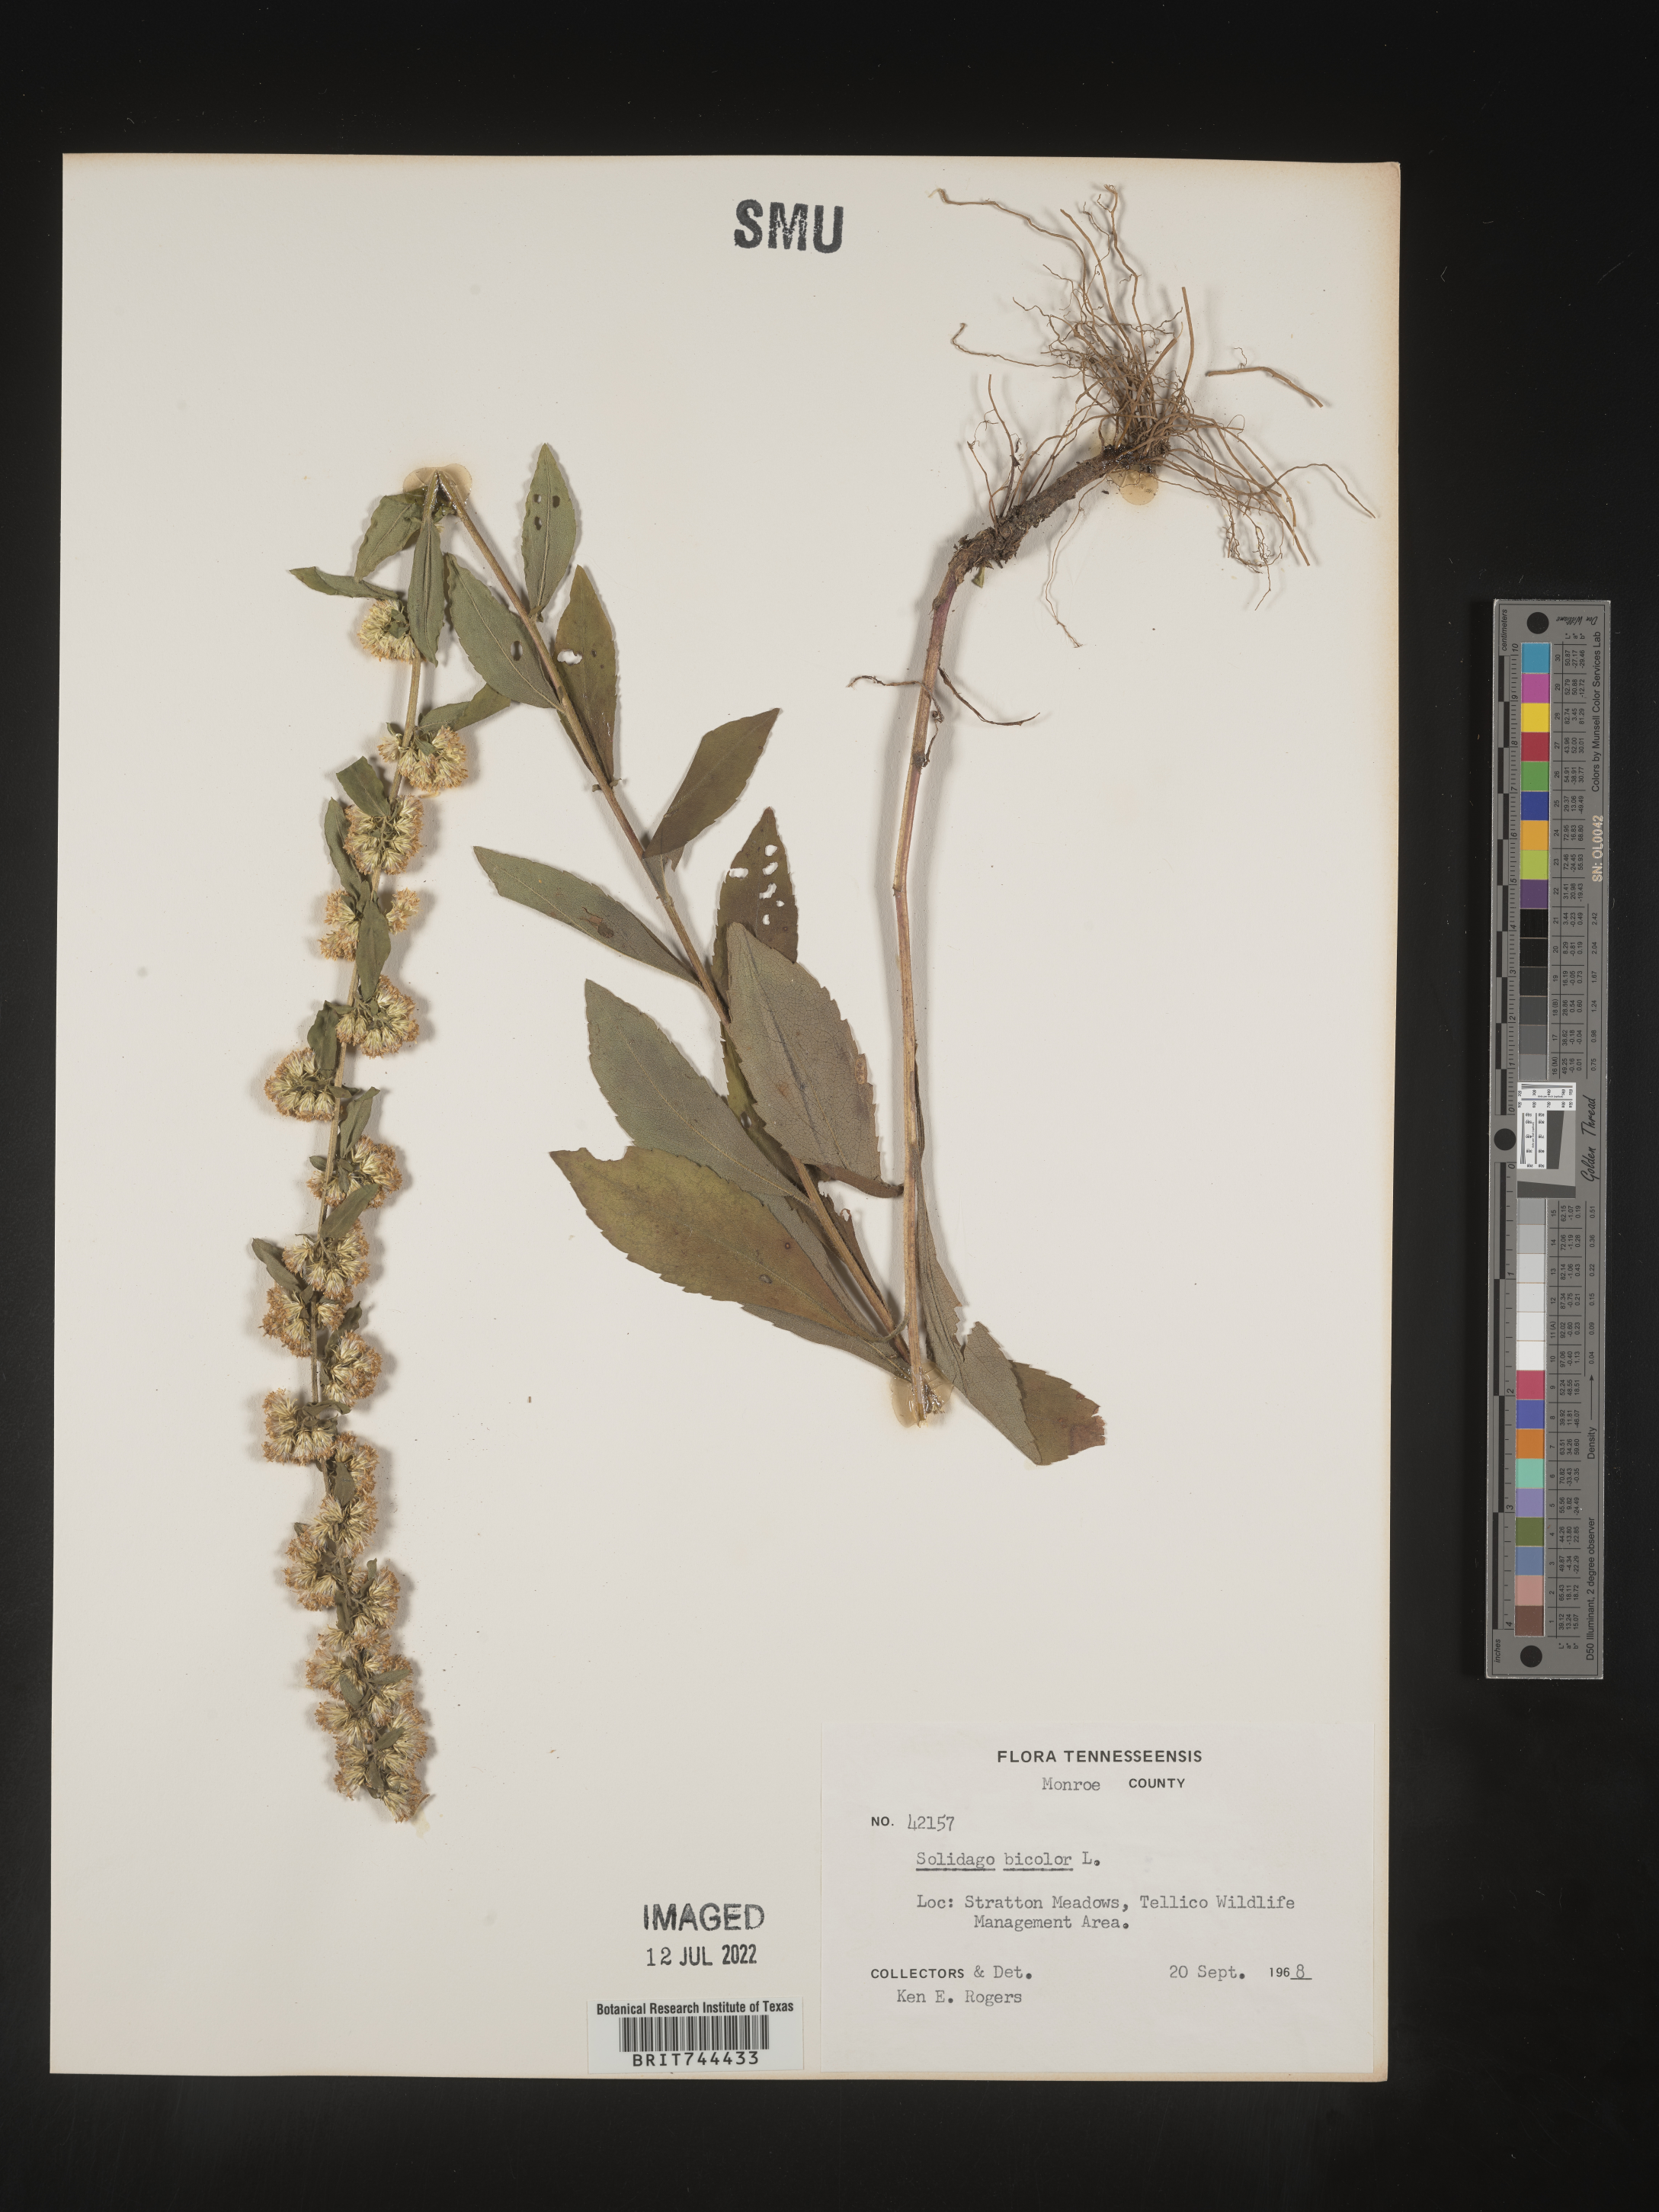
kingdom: Plantae
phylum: Tracheophyta
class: Magnoliopsida
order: Asterales
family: Asteraceae
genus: Solidago
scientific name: Solidago bicolor
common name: Silverrod
